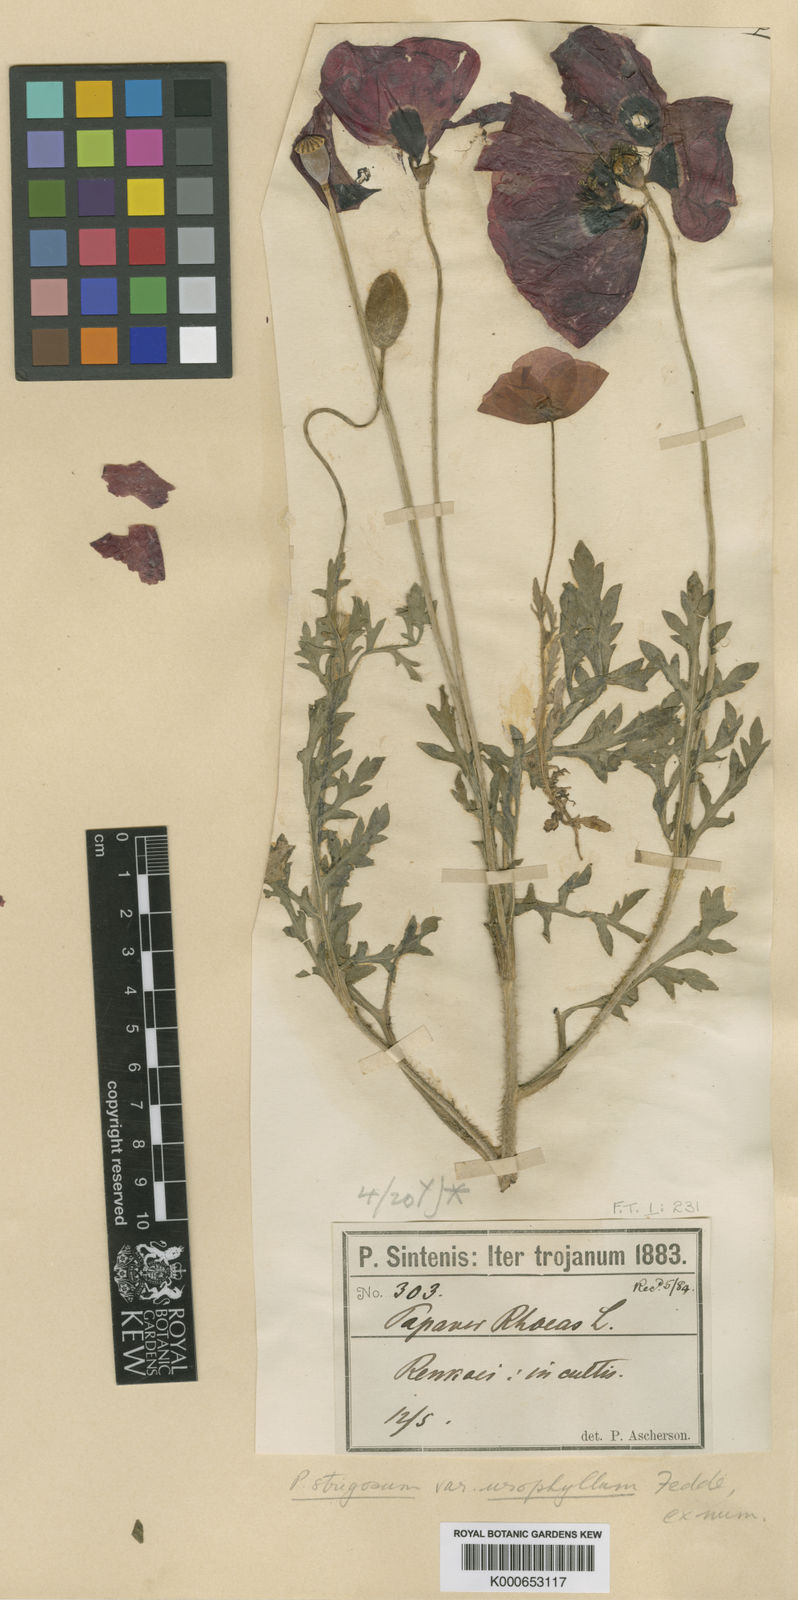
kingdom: Plantae
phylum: Tracheophyta
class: Magnoliopsida
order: Ranunculales
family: Papaveraceae
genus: Papaver
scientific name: Papaver rhoeas
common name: Corn poppy
